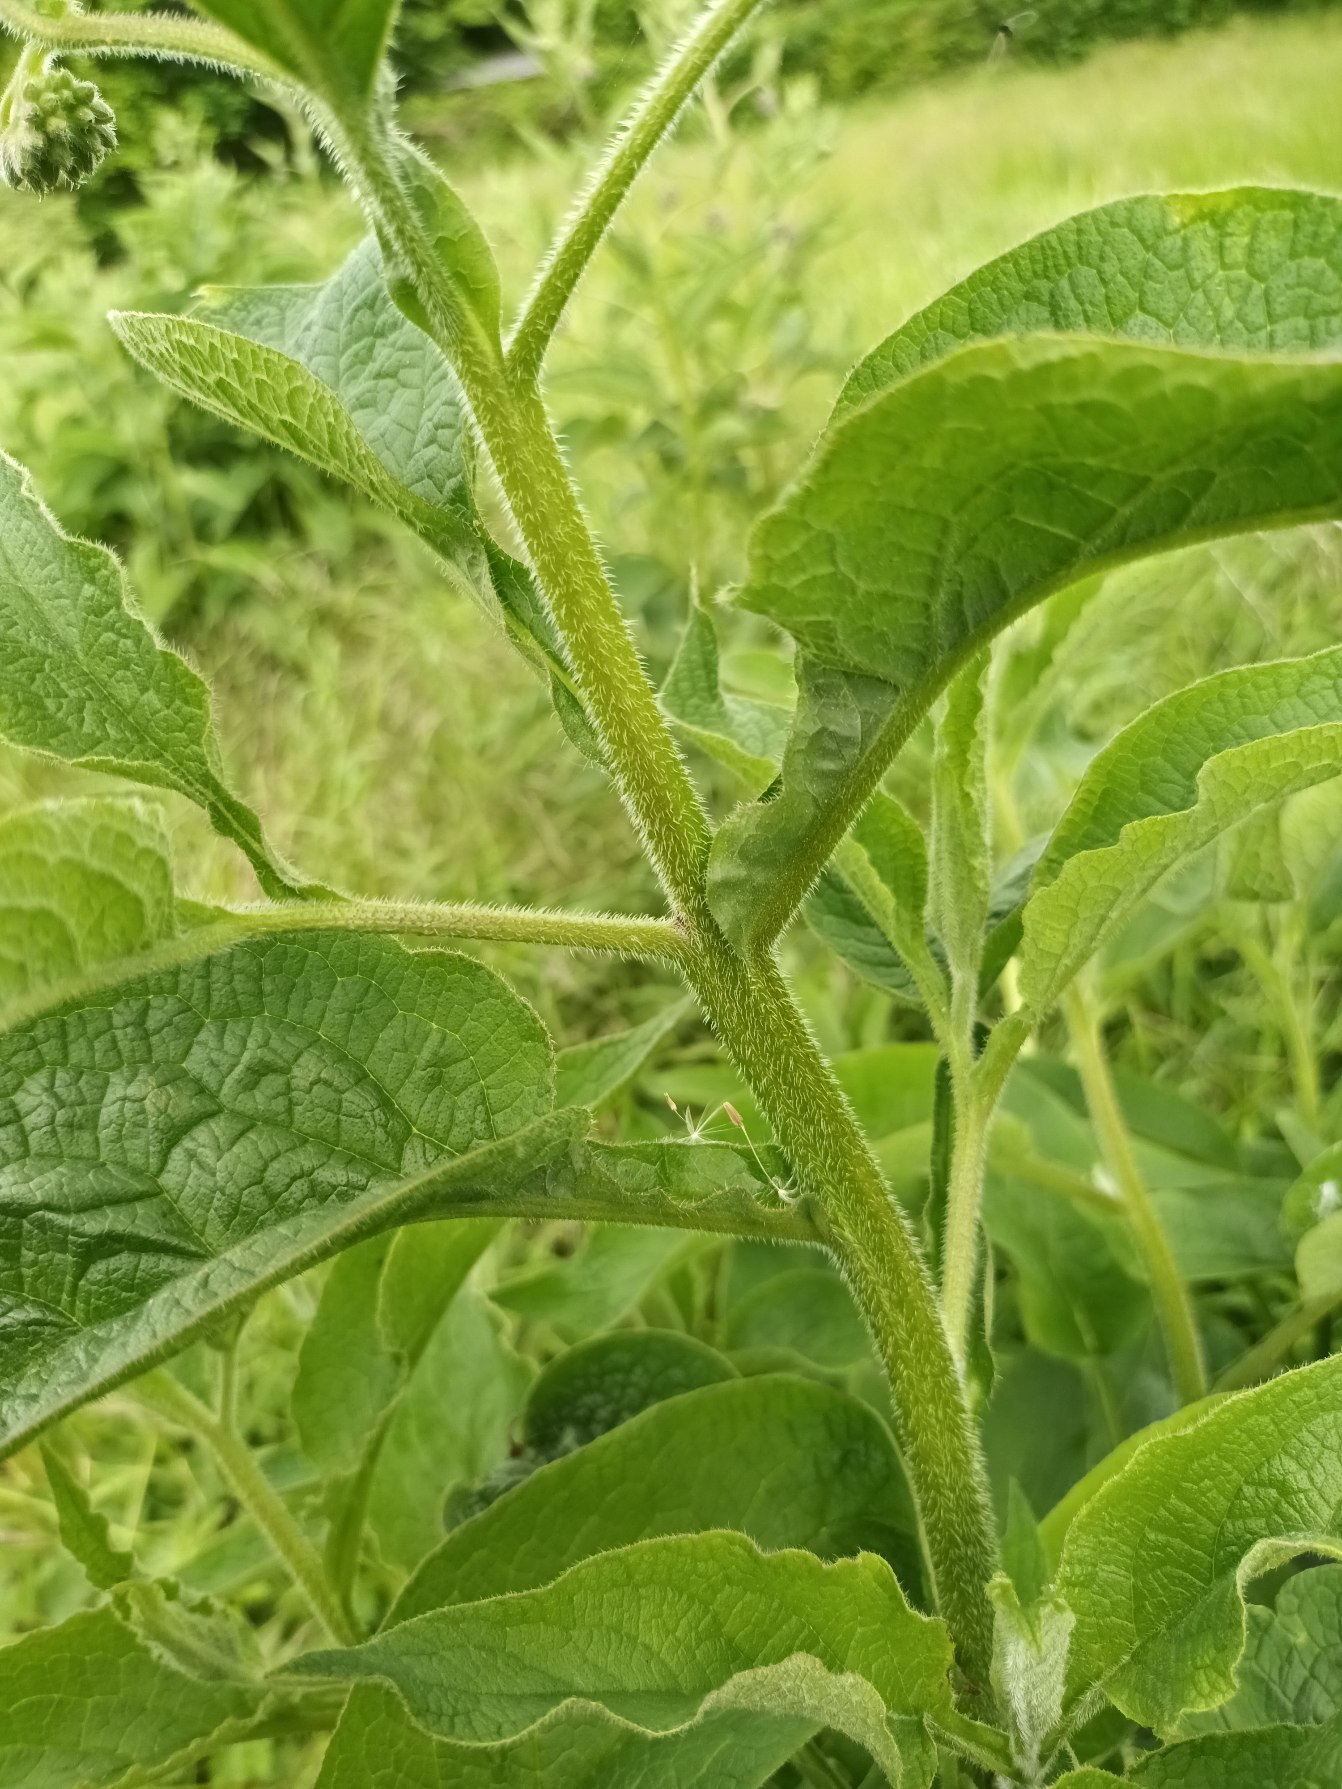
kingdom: Plantae
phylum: Tracheophyta
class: Magnoliopsida
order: Boraginales
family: Boraginaceae
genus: Symphytum
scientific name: Symphytum uplandicum
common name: Foder-kulsukker
